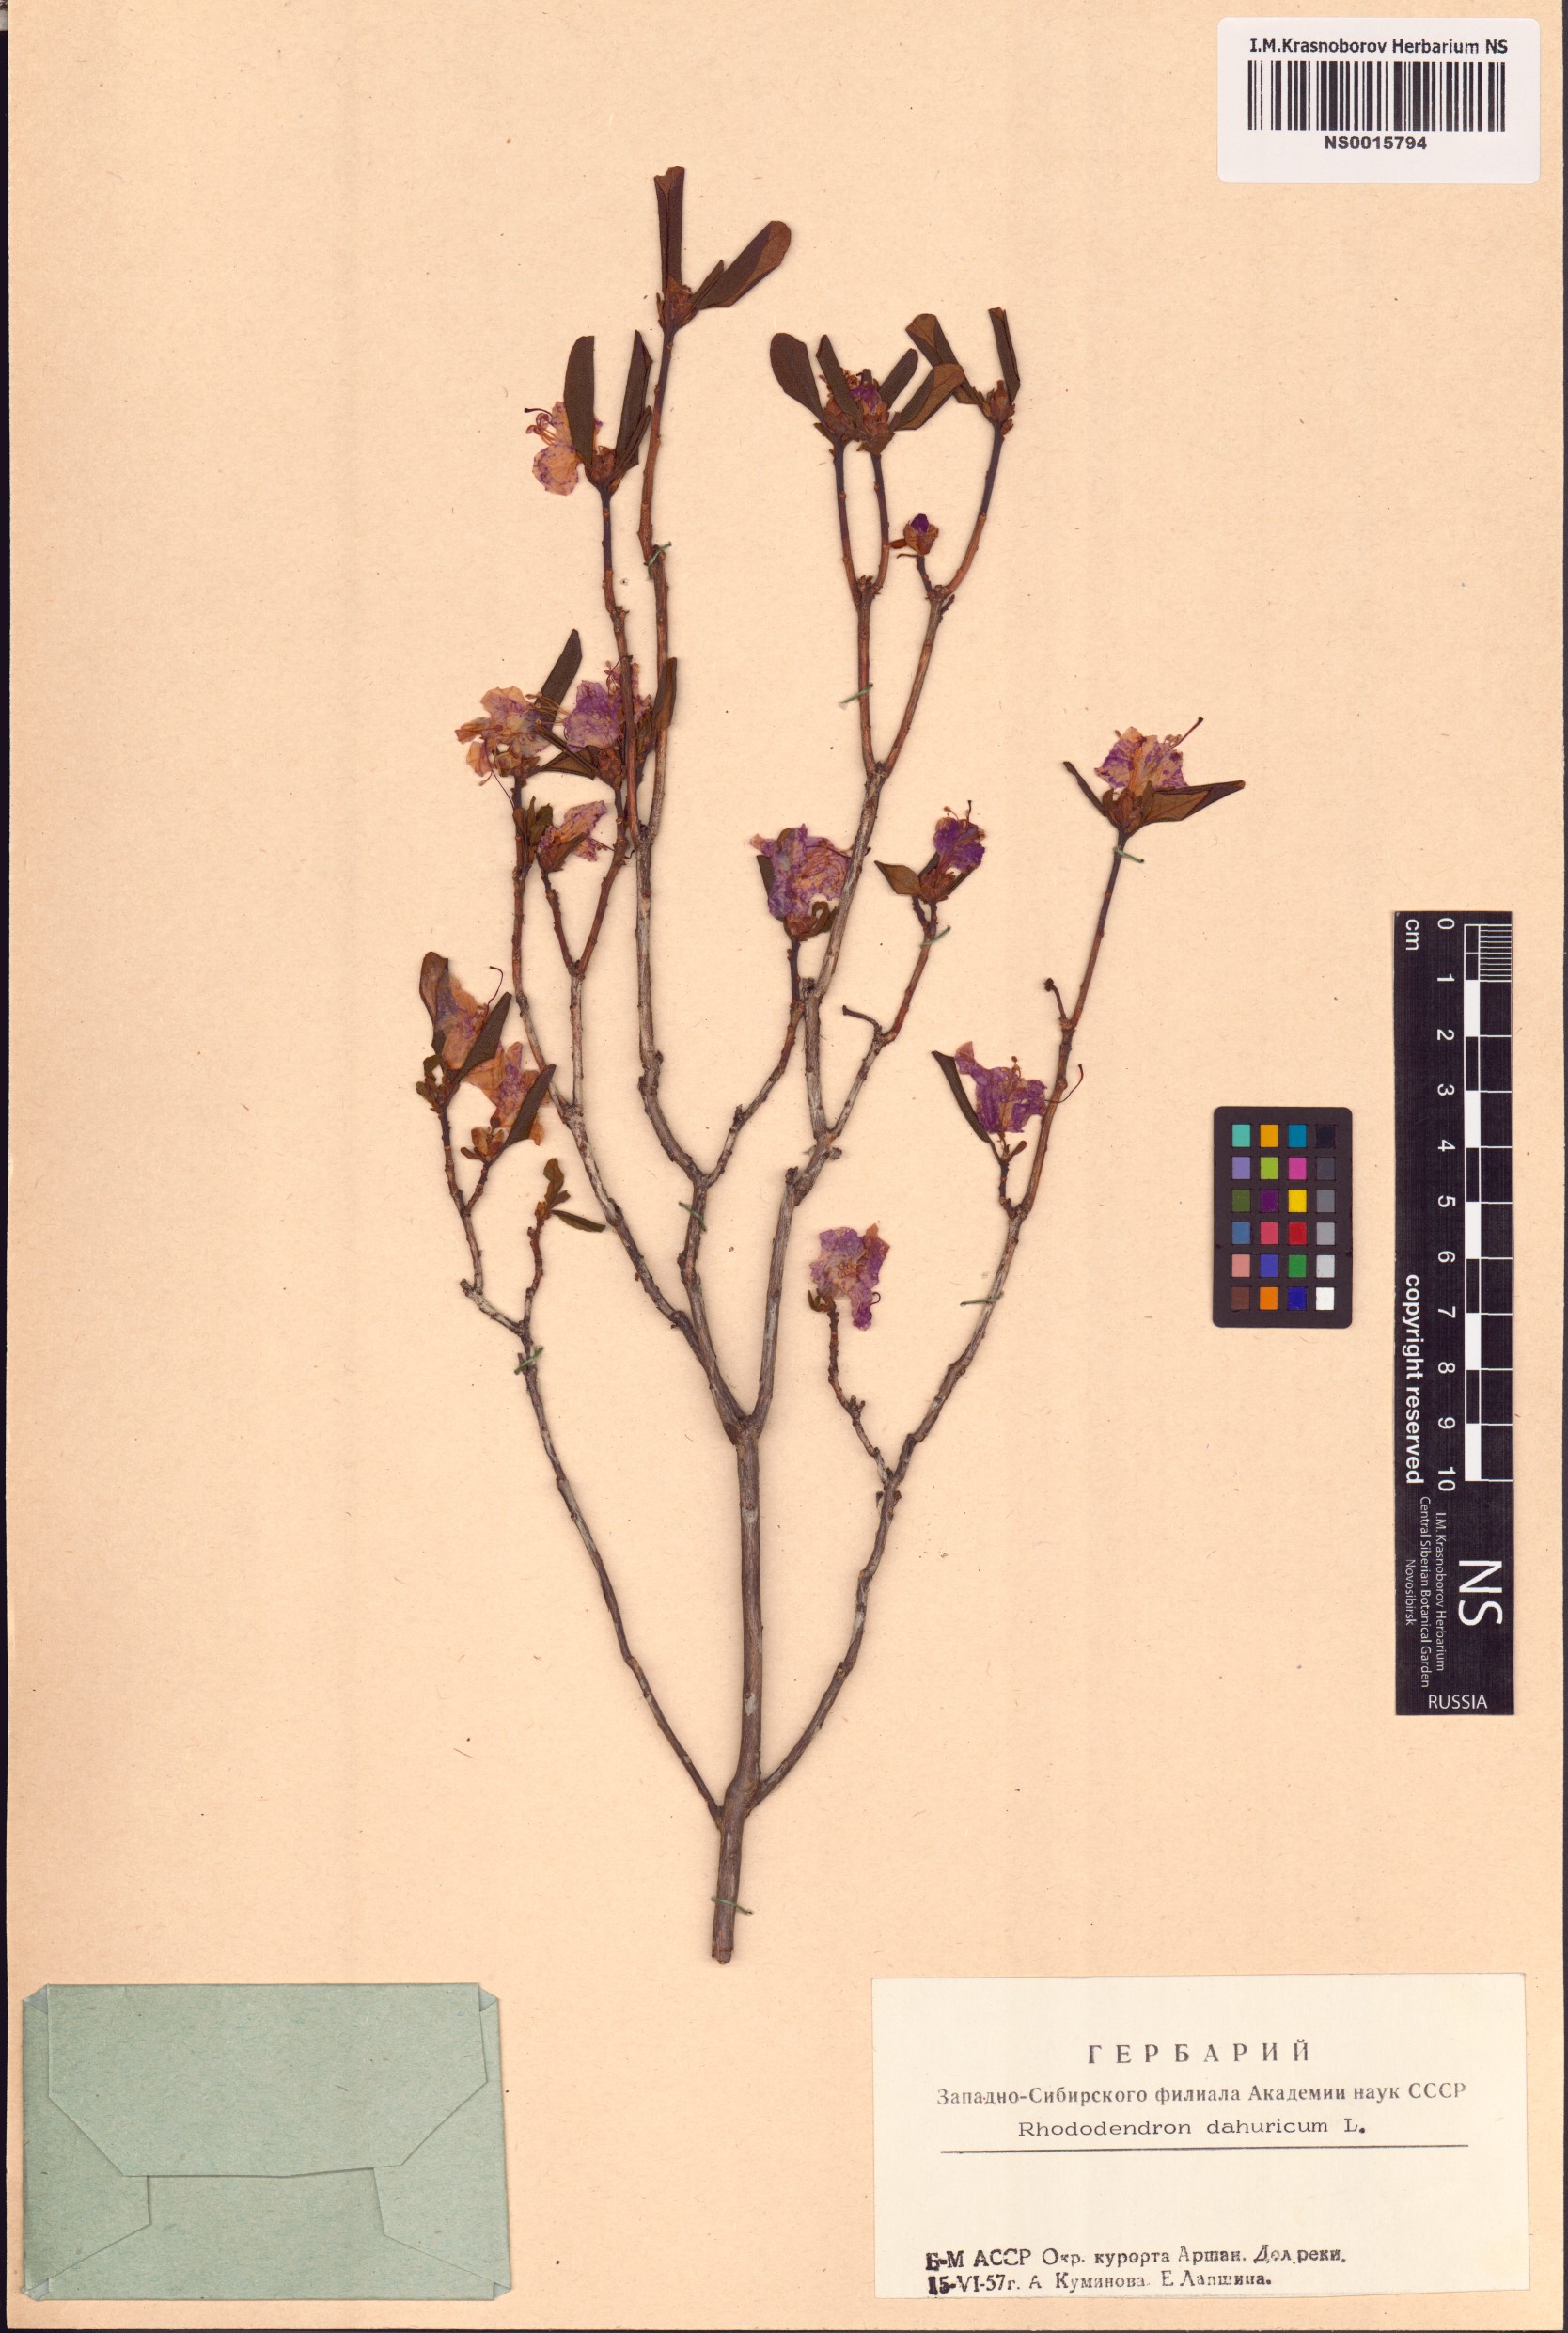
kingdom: Plantae
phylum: Tracheophyta
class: Magnoliopsida
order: Ericales
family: Ericaceae
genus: Rhododendron
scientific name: Rhododendron dauricum
